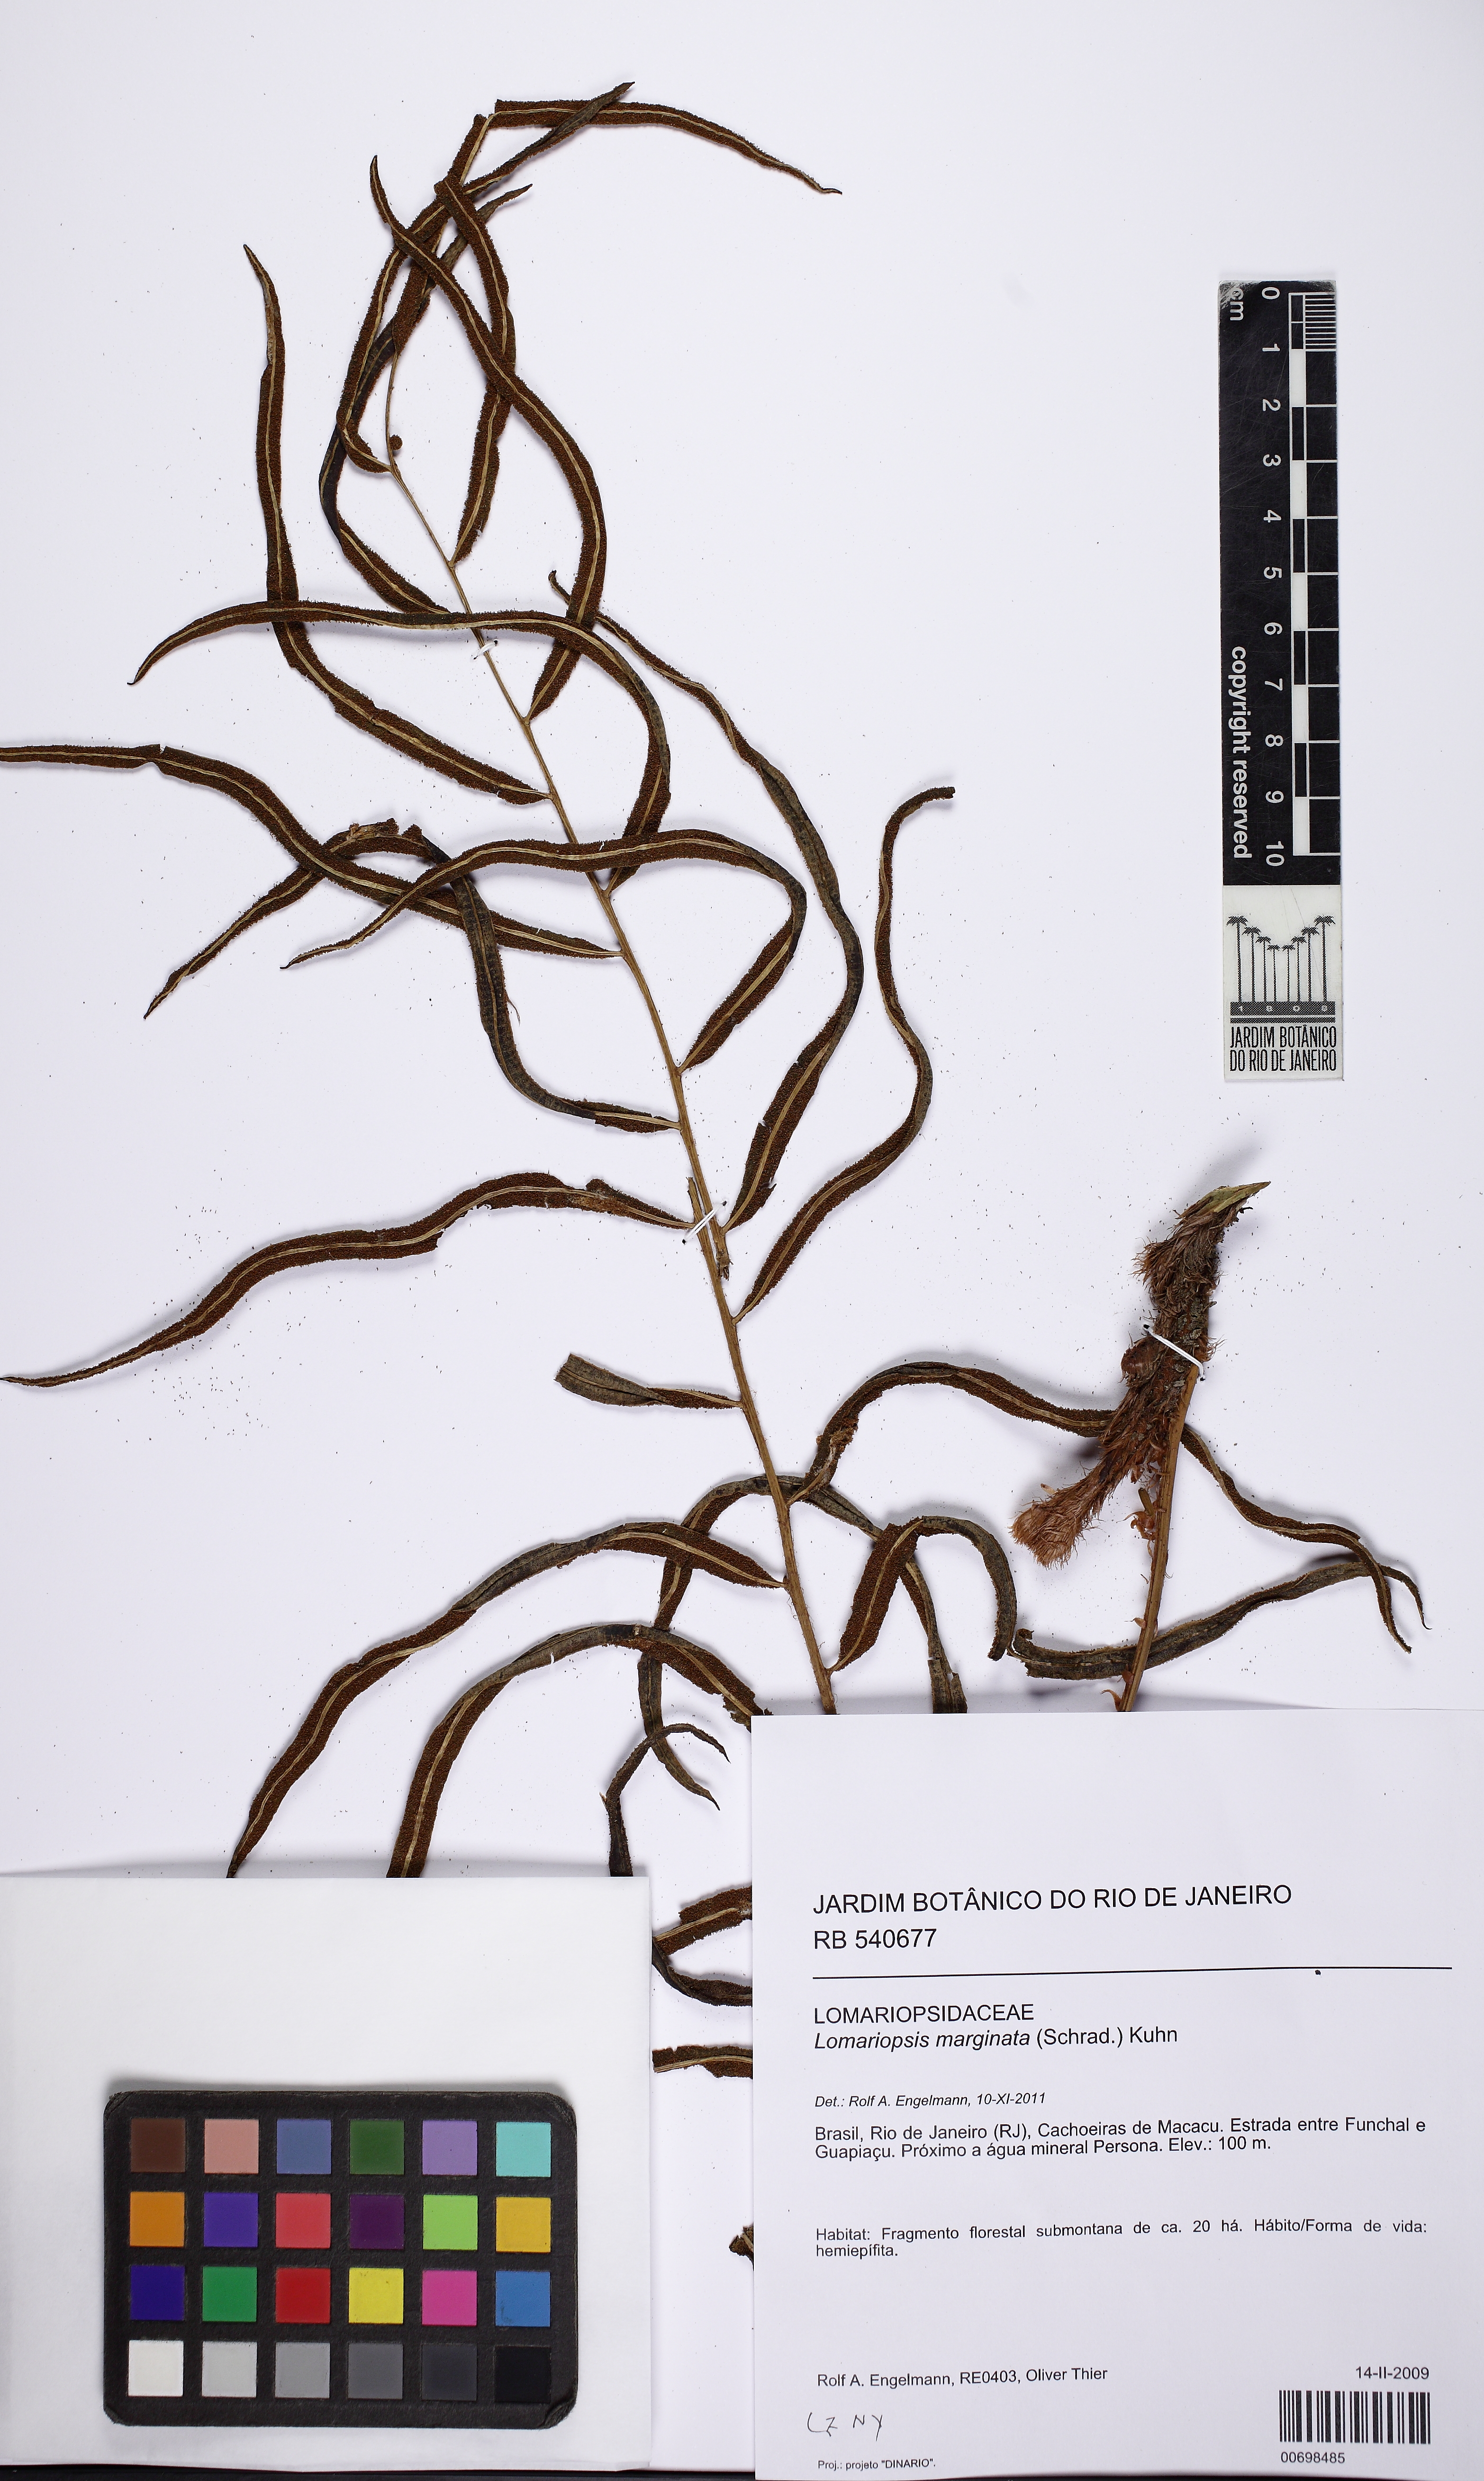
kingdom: Plantae
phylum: Tracheophyta
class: Polypodiopsida
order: Polypodiales
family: Lomariopsidaceae
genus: Lomariopsis
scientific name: Lomariopsis marginata
